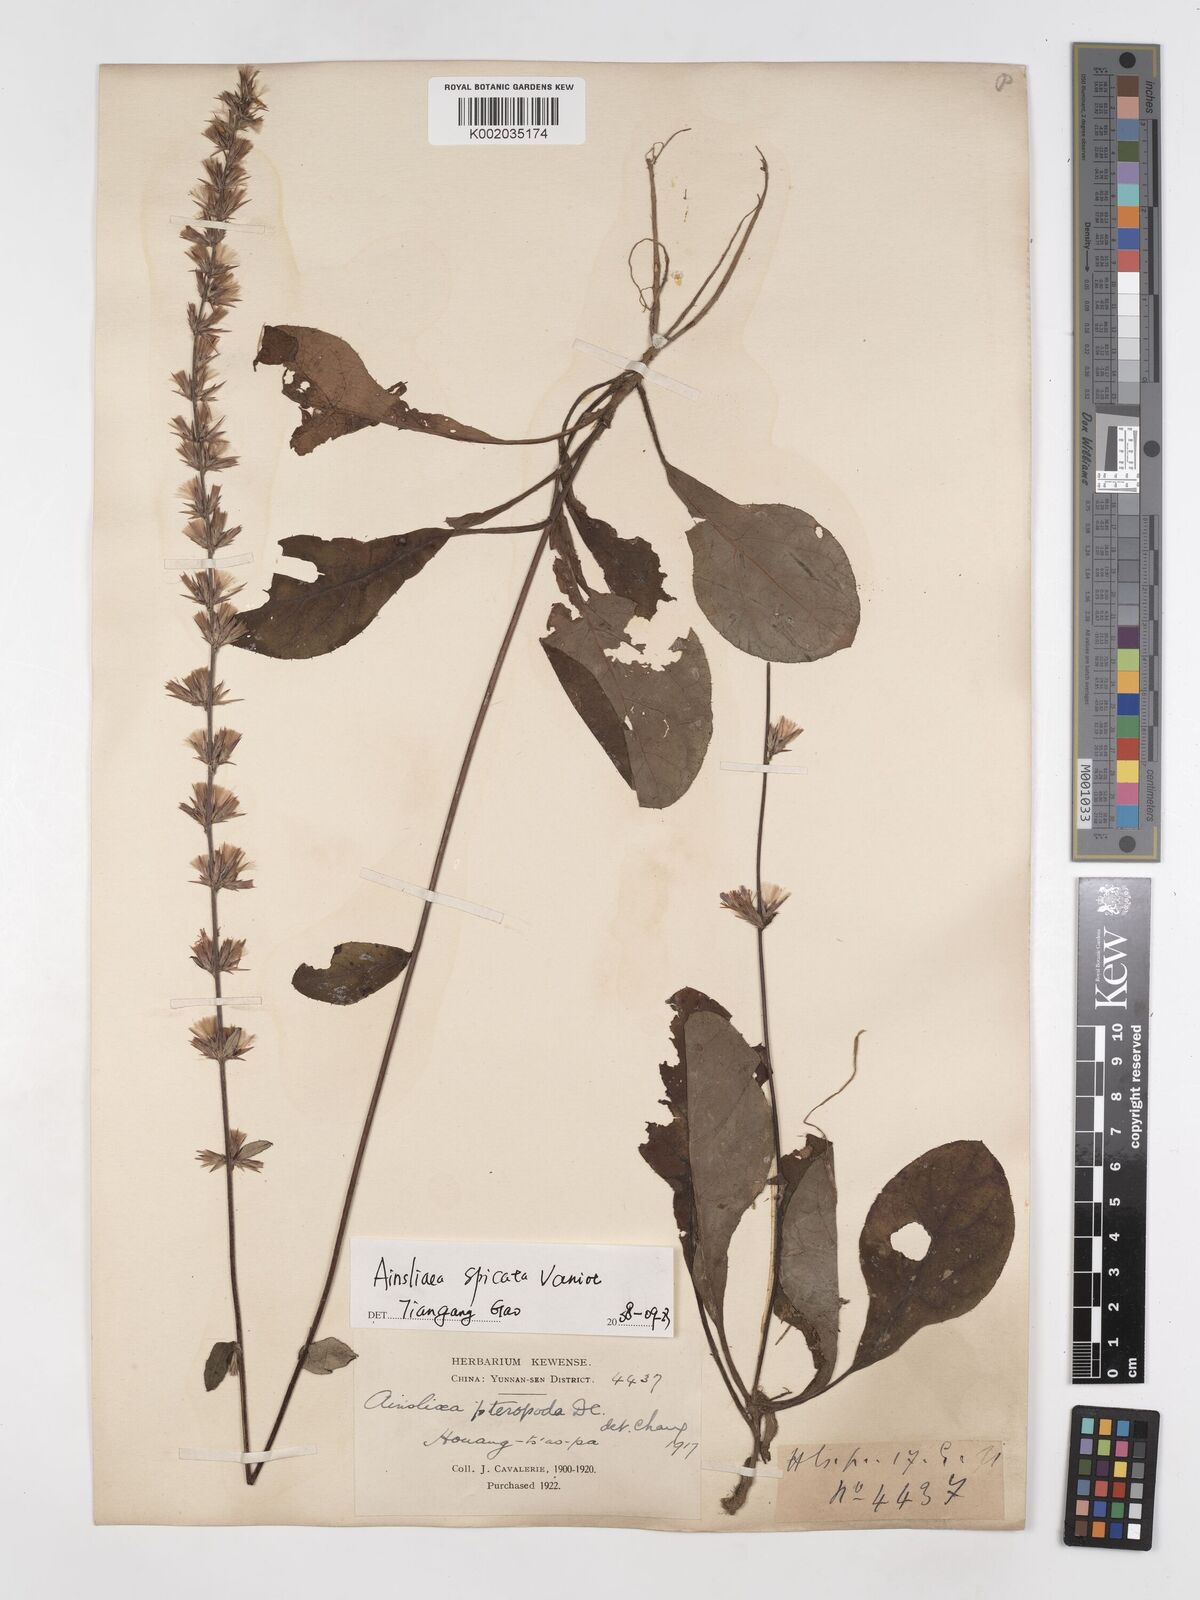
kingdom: Plantae
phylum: Tracheophyta
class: Magnoliopsida
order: Asterales
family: Asteraceae
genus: Ainsliaea
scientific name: Ainsliaea spicata
